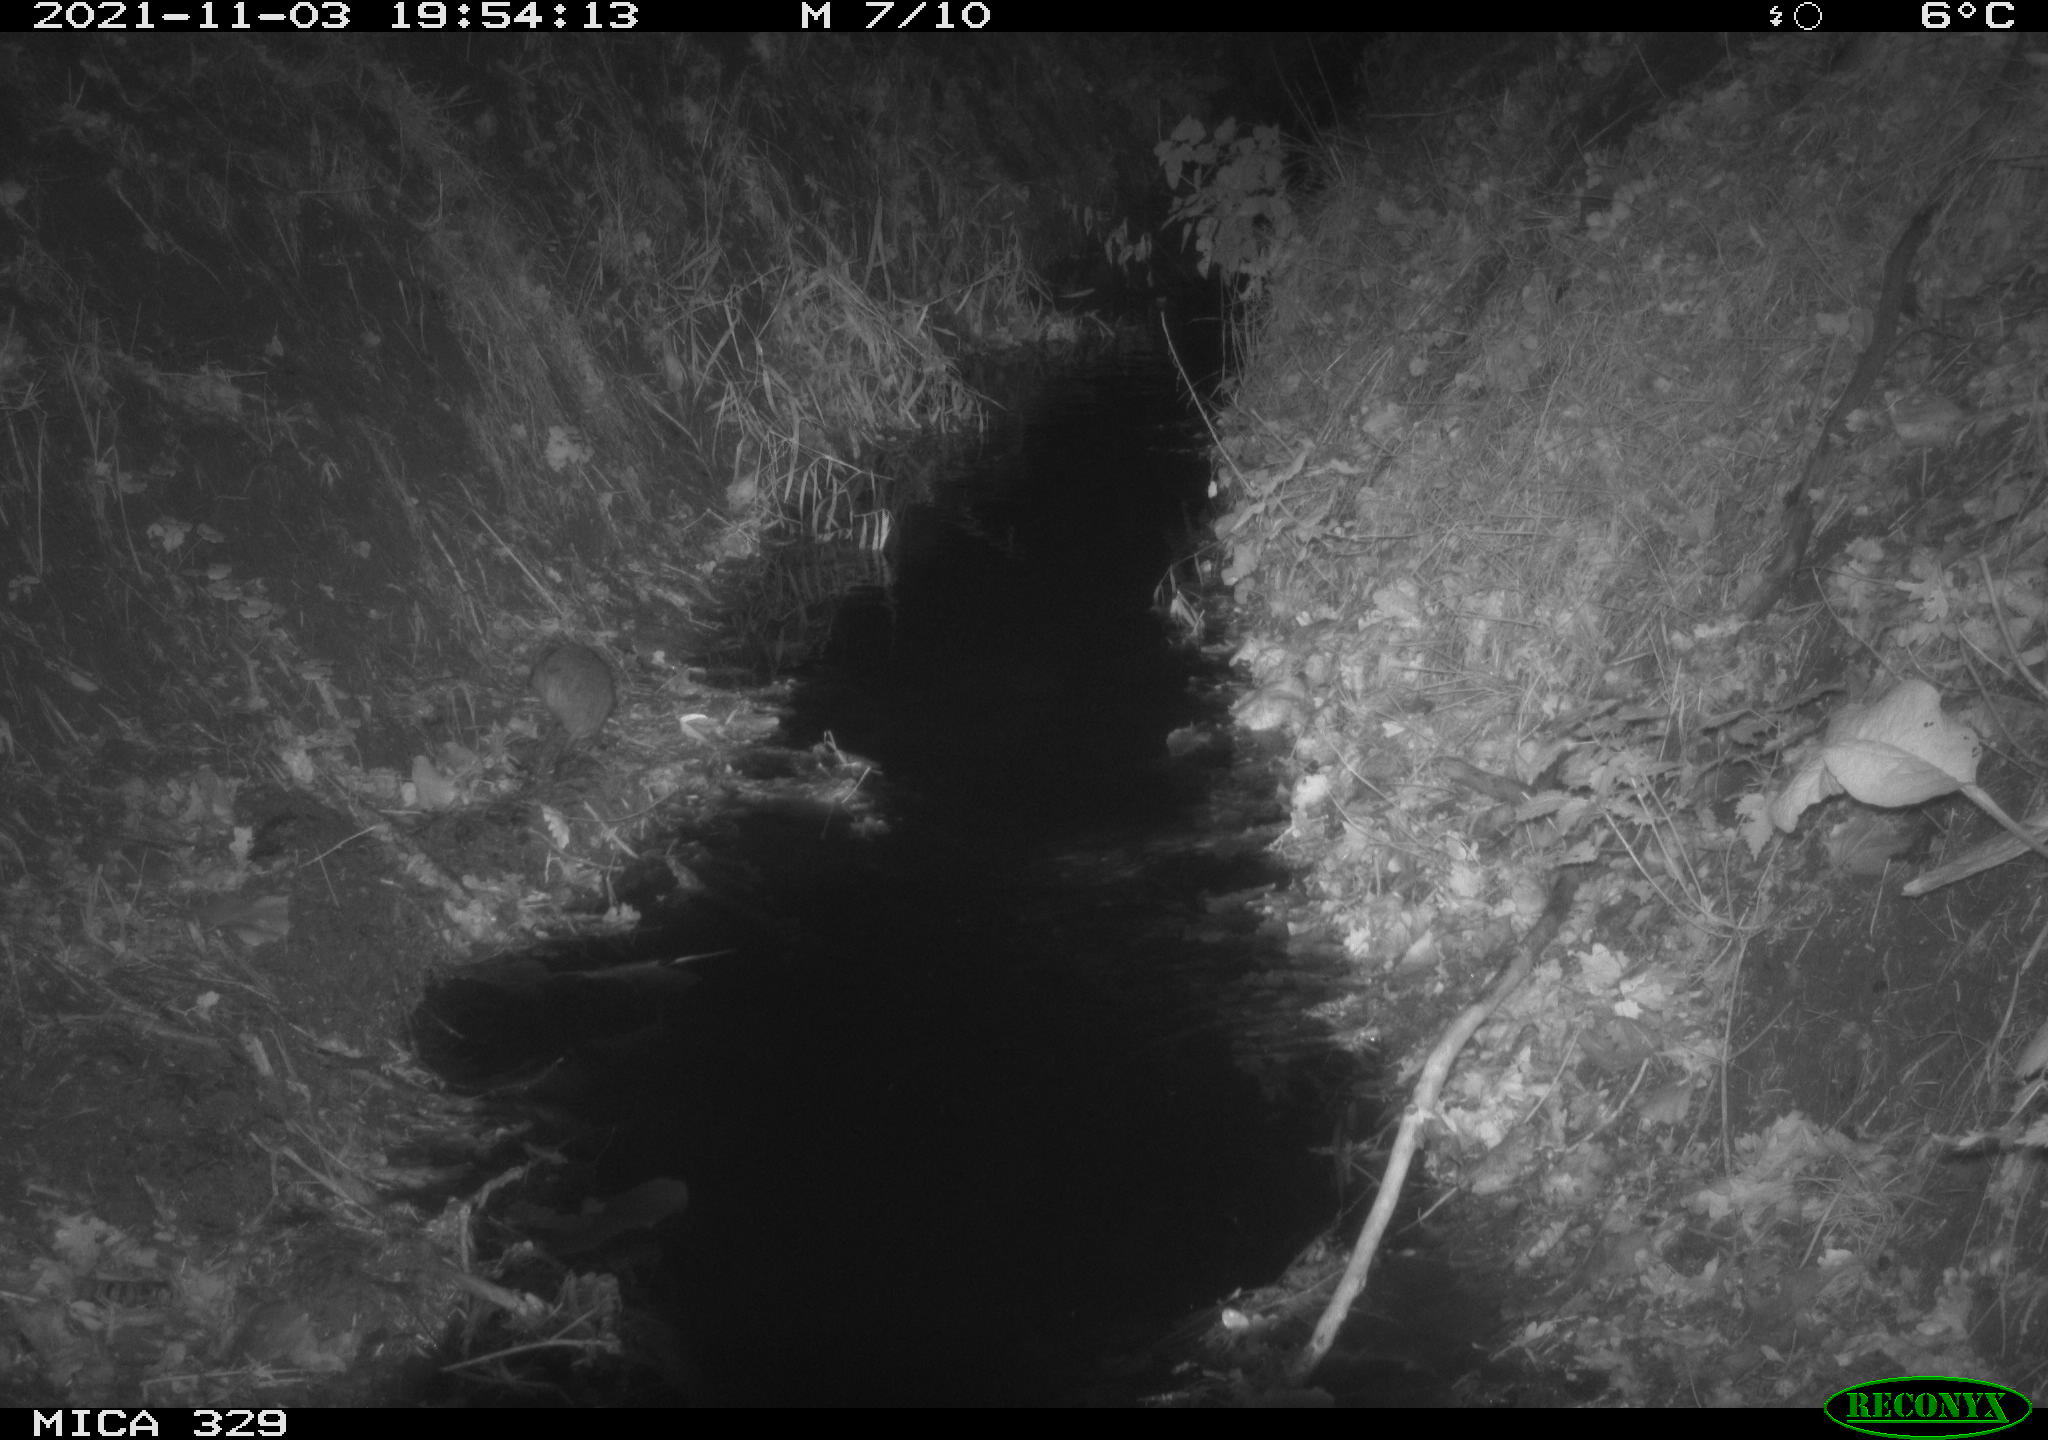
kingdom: Animalia
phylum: Chordata
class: Mammalia
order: Rodentia
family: Muridae
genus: Rattus
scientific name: Rattus norvegicus
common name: Brown rat
